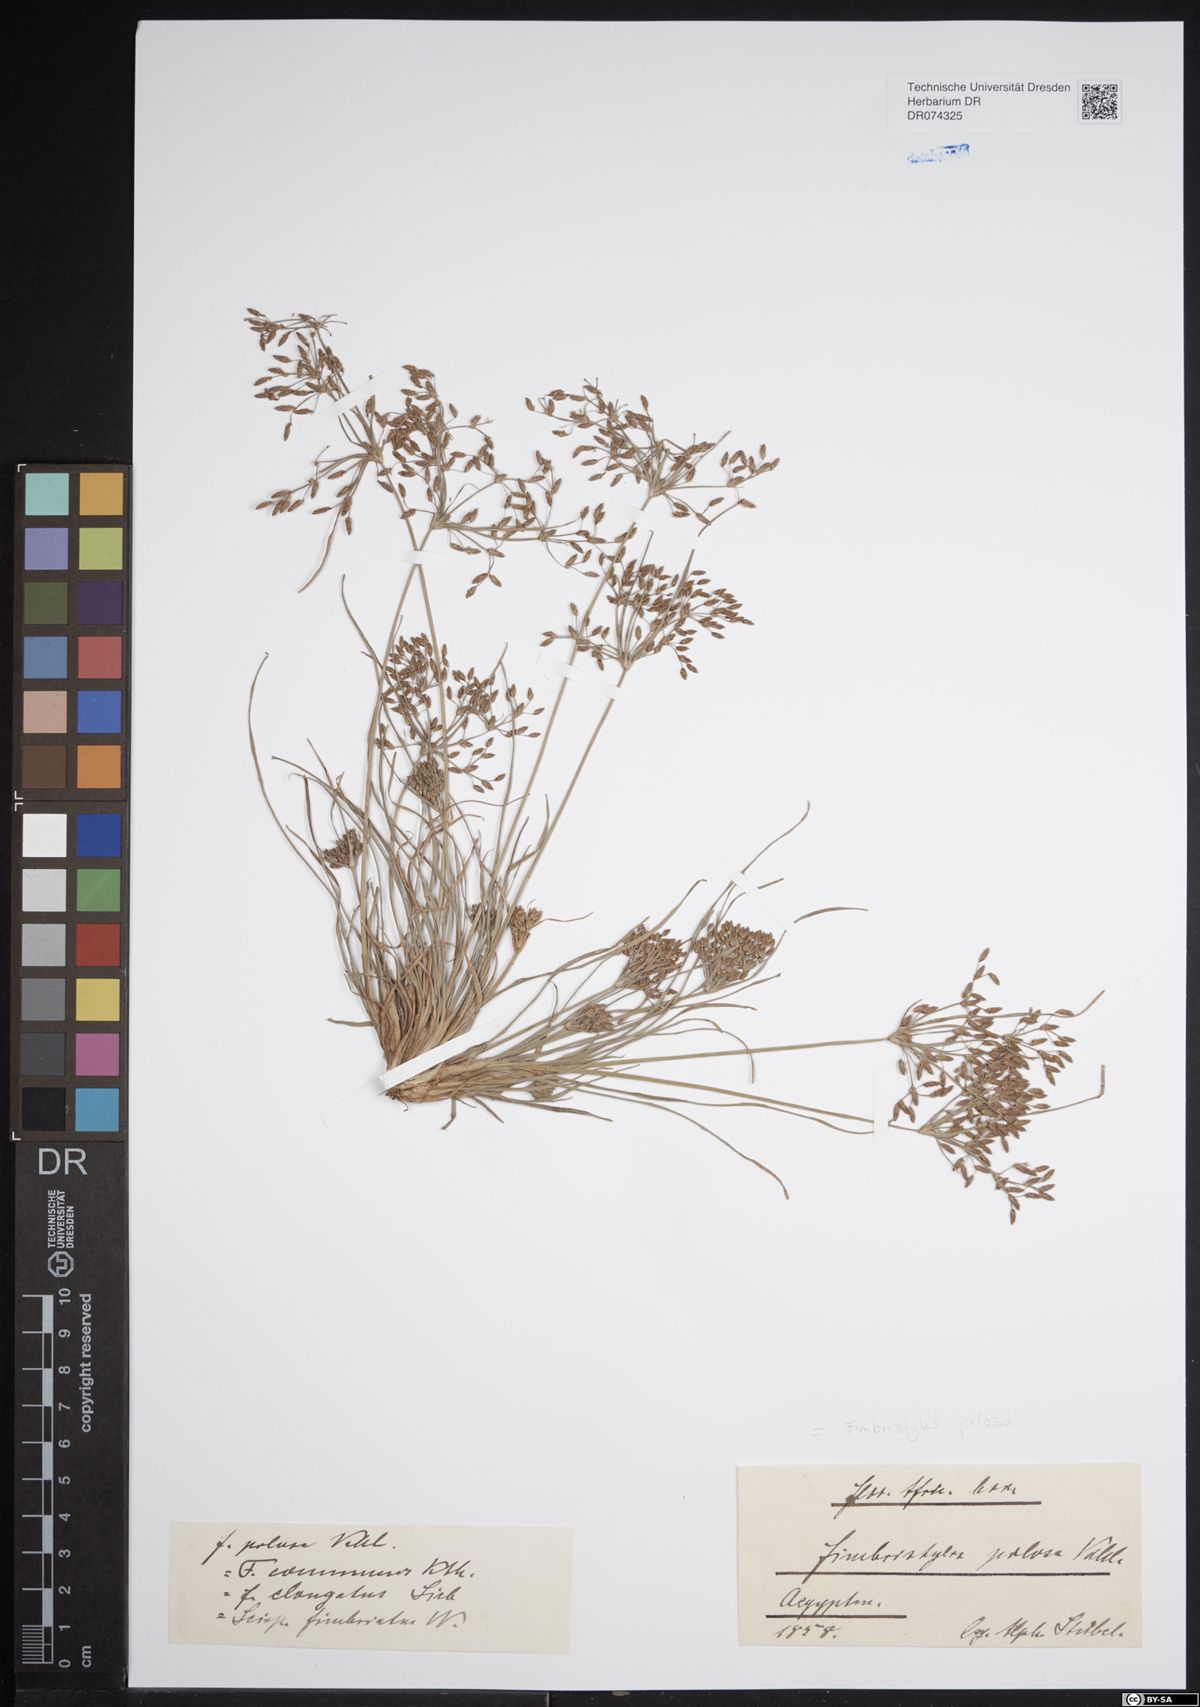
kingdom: Plantae
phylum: Tracheophyta
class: Liliopsida
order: Poales
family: Cyperaceae
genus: Fimbristylis
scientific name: Fimbristylis pilosa
